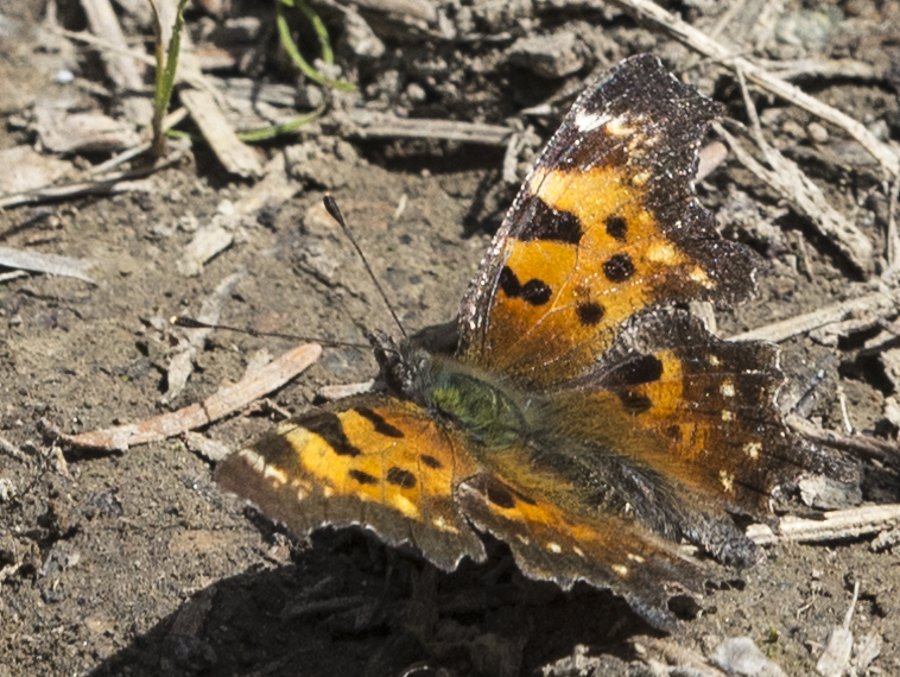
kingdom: Animalia
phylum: Arthropoda
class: Insecta
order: Lepidoptera
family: Nymphalidae
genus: Polygonia
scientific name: Polygonia faunus
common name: Green Comma
